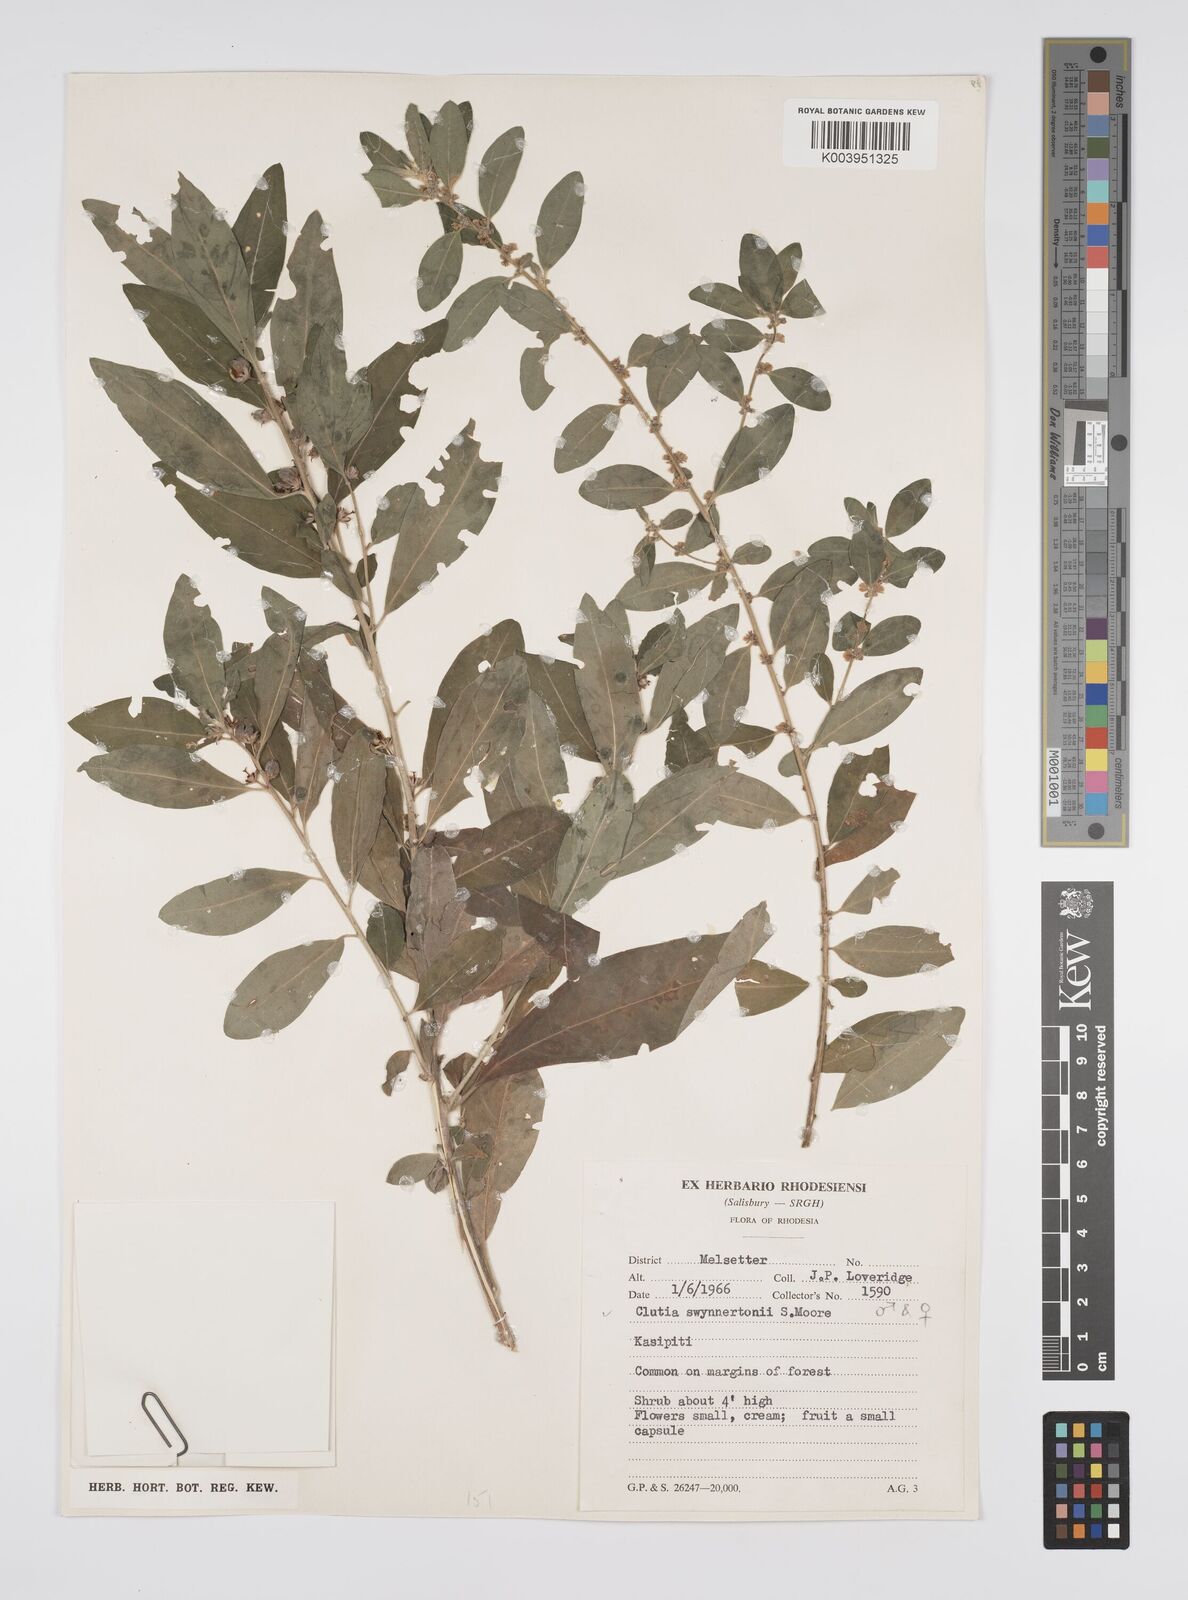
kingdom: Plantae
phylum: Tracheophyta
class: Magnoliopsida
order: Malpighiales
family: Peraceae
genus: Clutia
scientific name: Clutia swynnertonii
